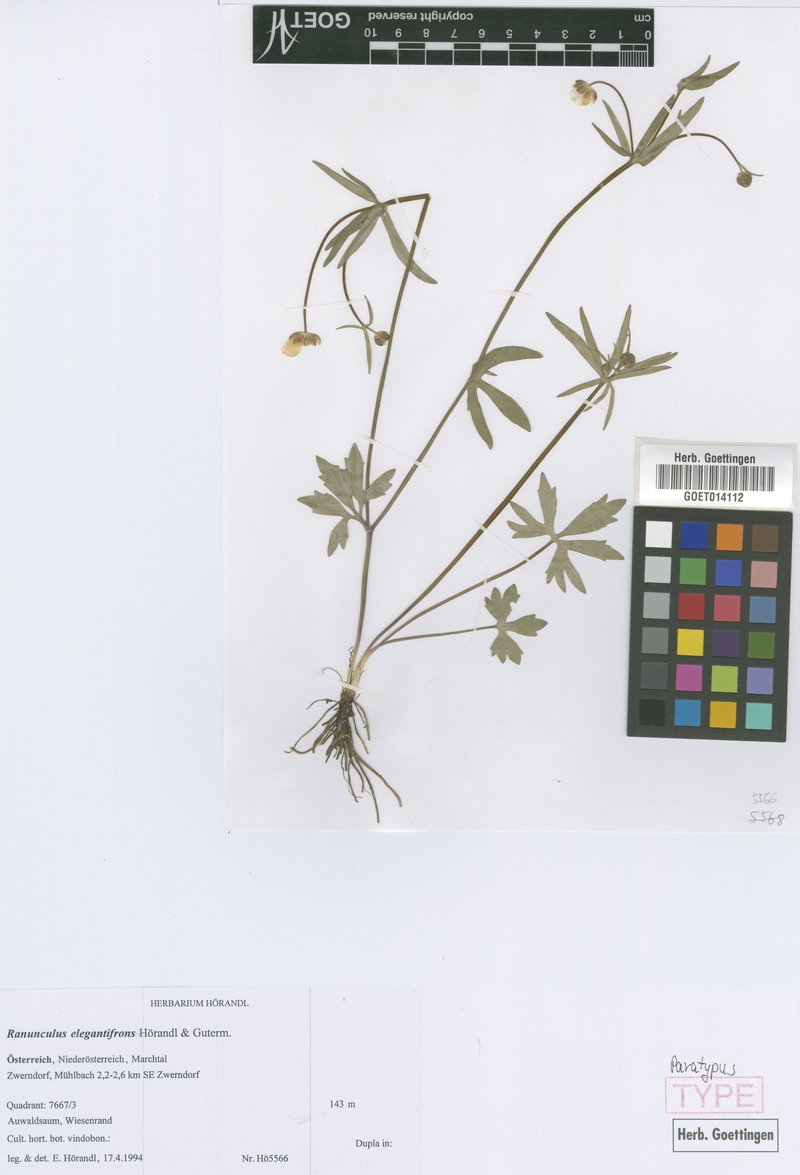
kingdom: Plantae
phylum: Tracheophyta
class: Magnoliopsida
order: Ranunculales
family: Ranunculaceae
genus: Ranunculus
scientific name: Ranunculus elegantifrons
